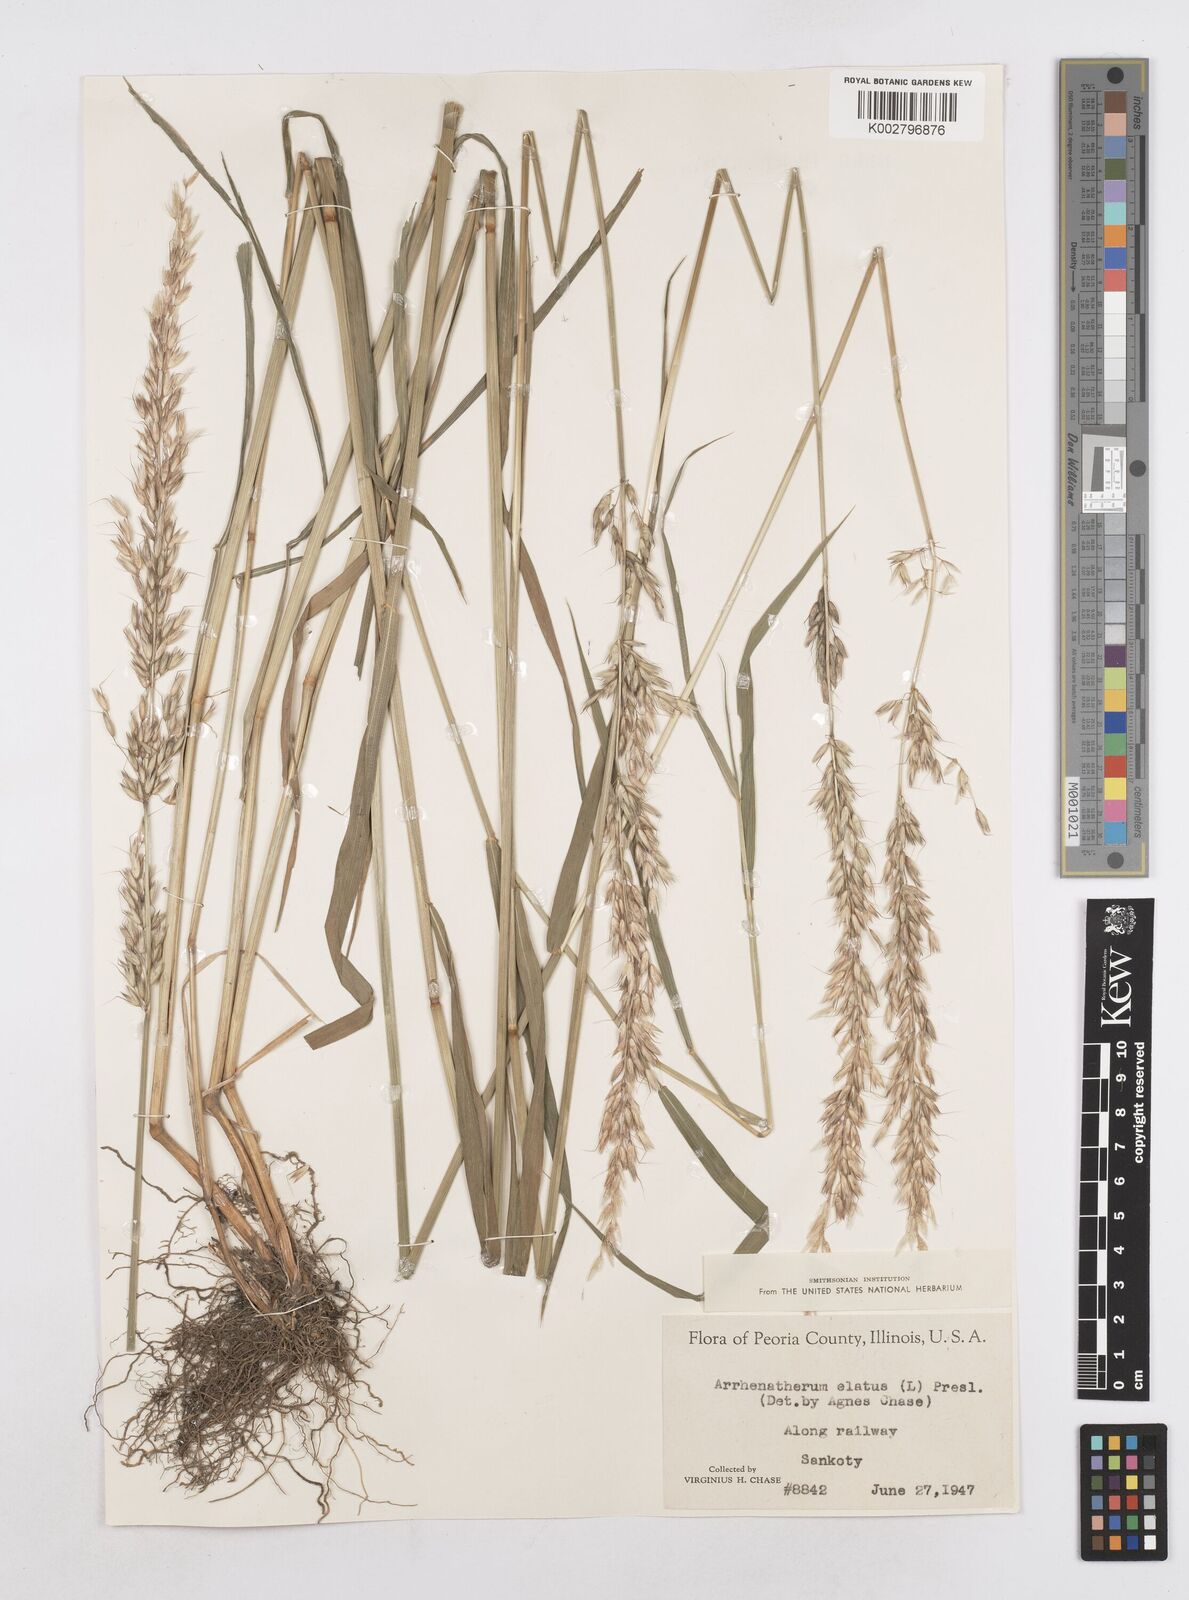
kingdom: Plantae
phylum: Tracheophyta
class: Liliopsida
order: Poales
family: Poaceae
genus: Arrhenatherum
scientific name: Arrhenatherum elatius
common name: Tall oatgrass
